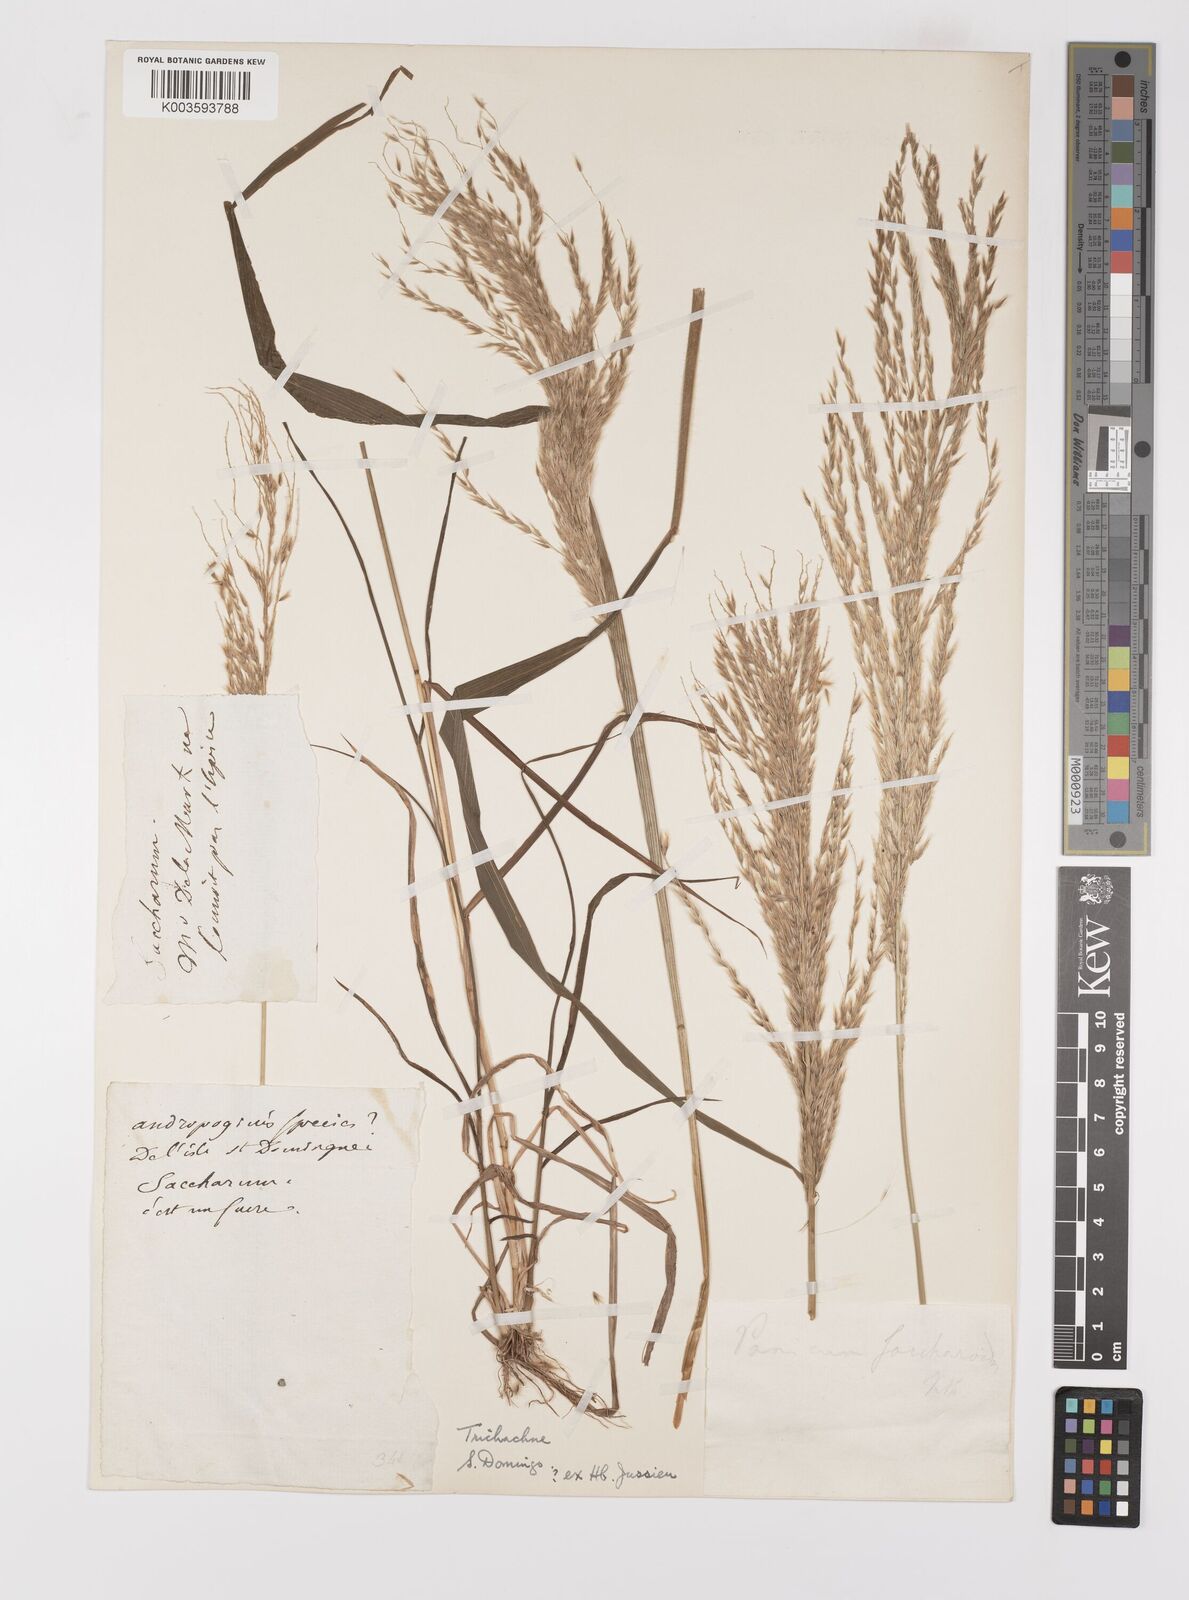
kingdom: Plantae
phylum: Tracheophyta
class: Liliopsida
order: Poales
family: Poaceae
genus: Digitaria
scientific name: Digitaria insularis
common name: Sourgrass
